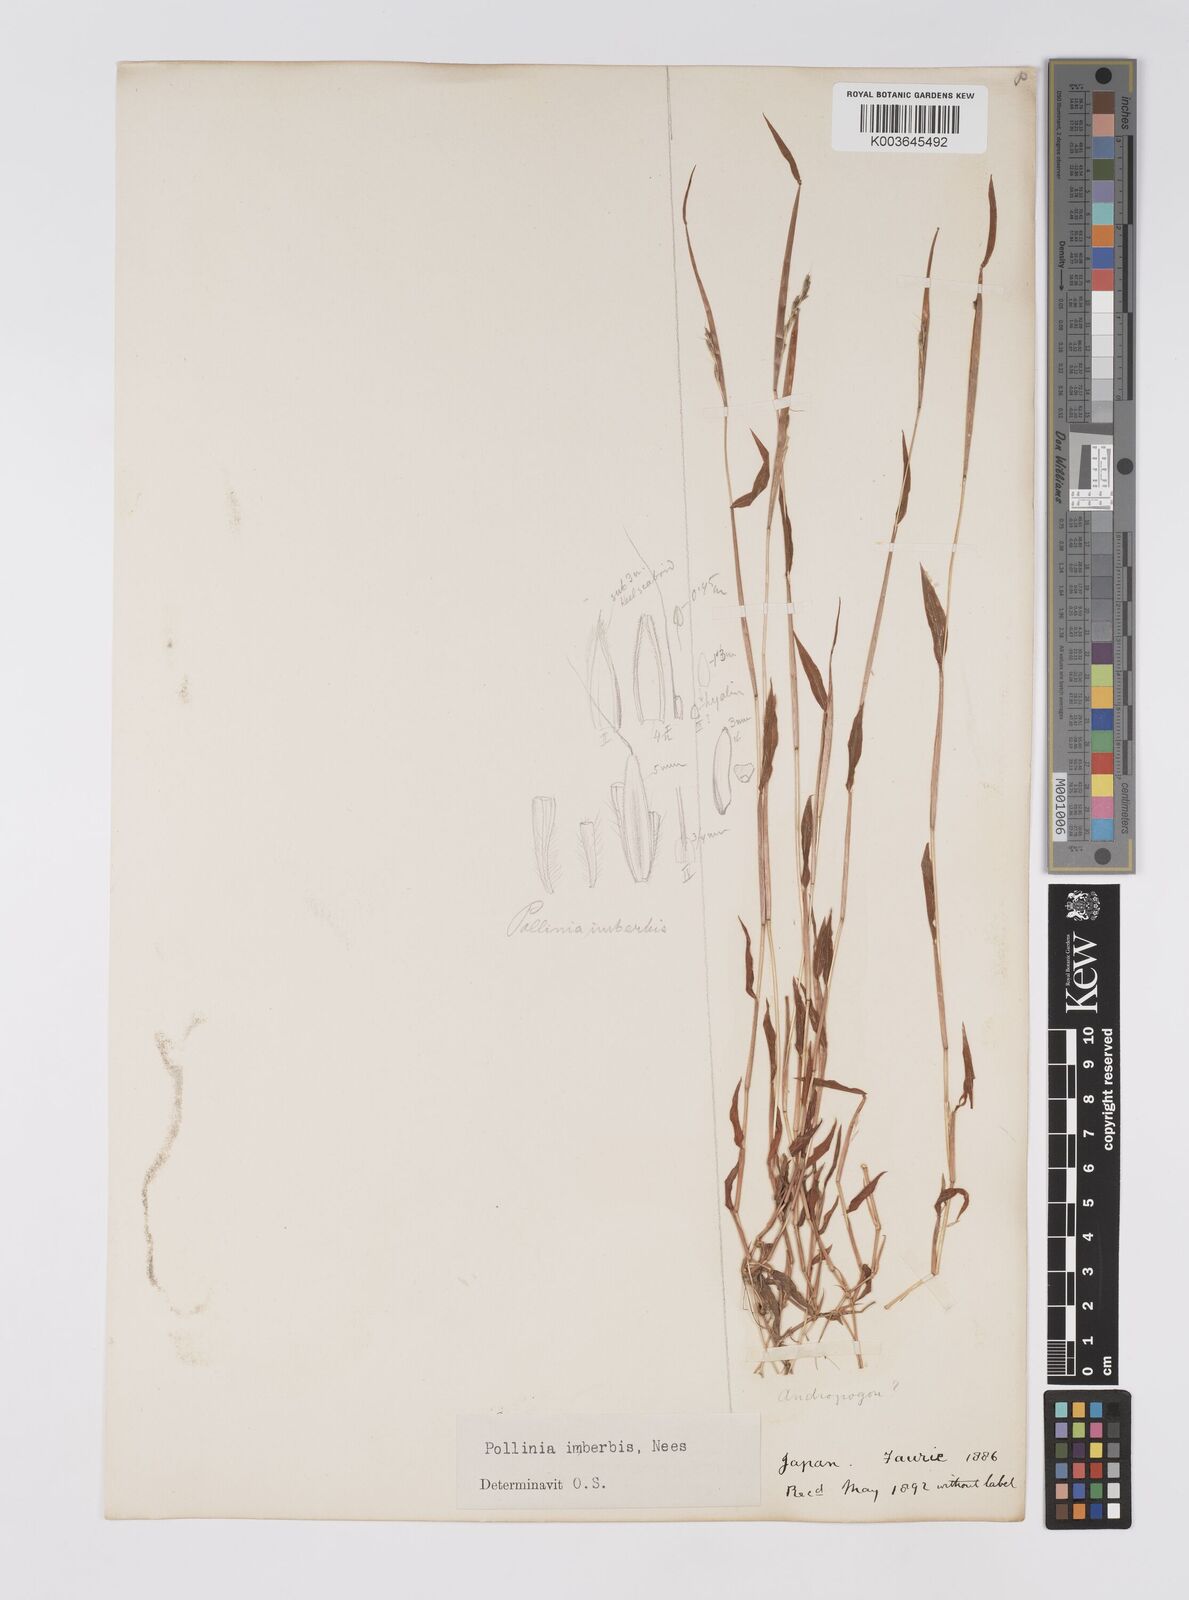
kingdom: Plantae
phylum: Tracheophyta
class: Liliopsida
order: Poales
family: Poaceae
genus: Microstegium
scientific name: Microstegium vimineum
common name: Japanese stiltgrass
